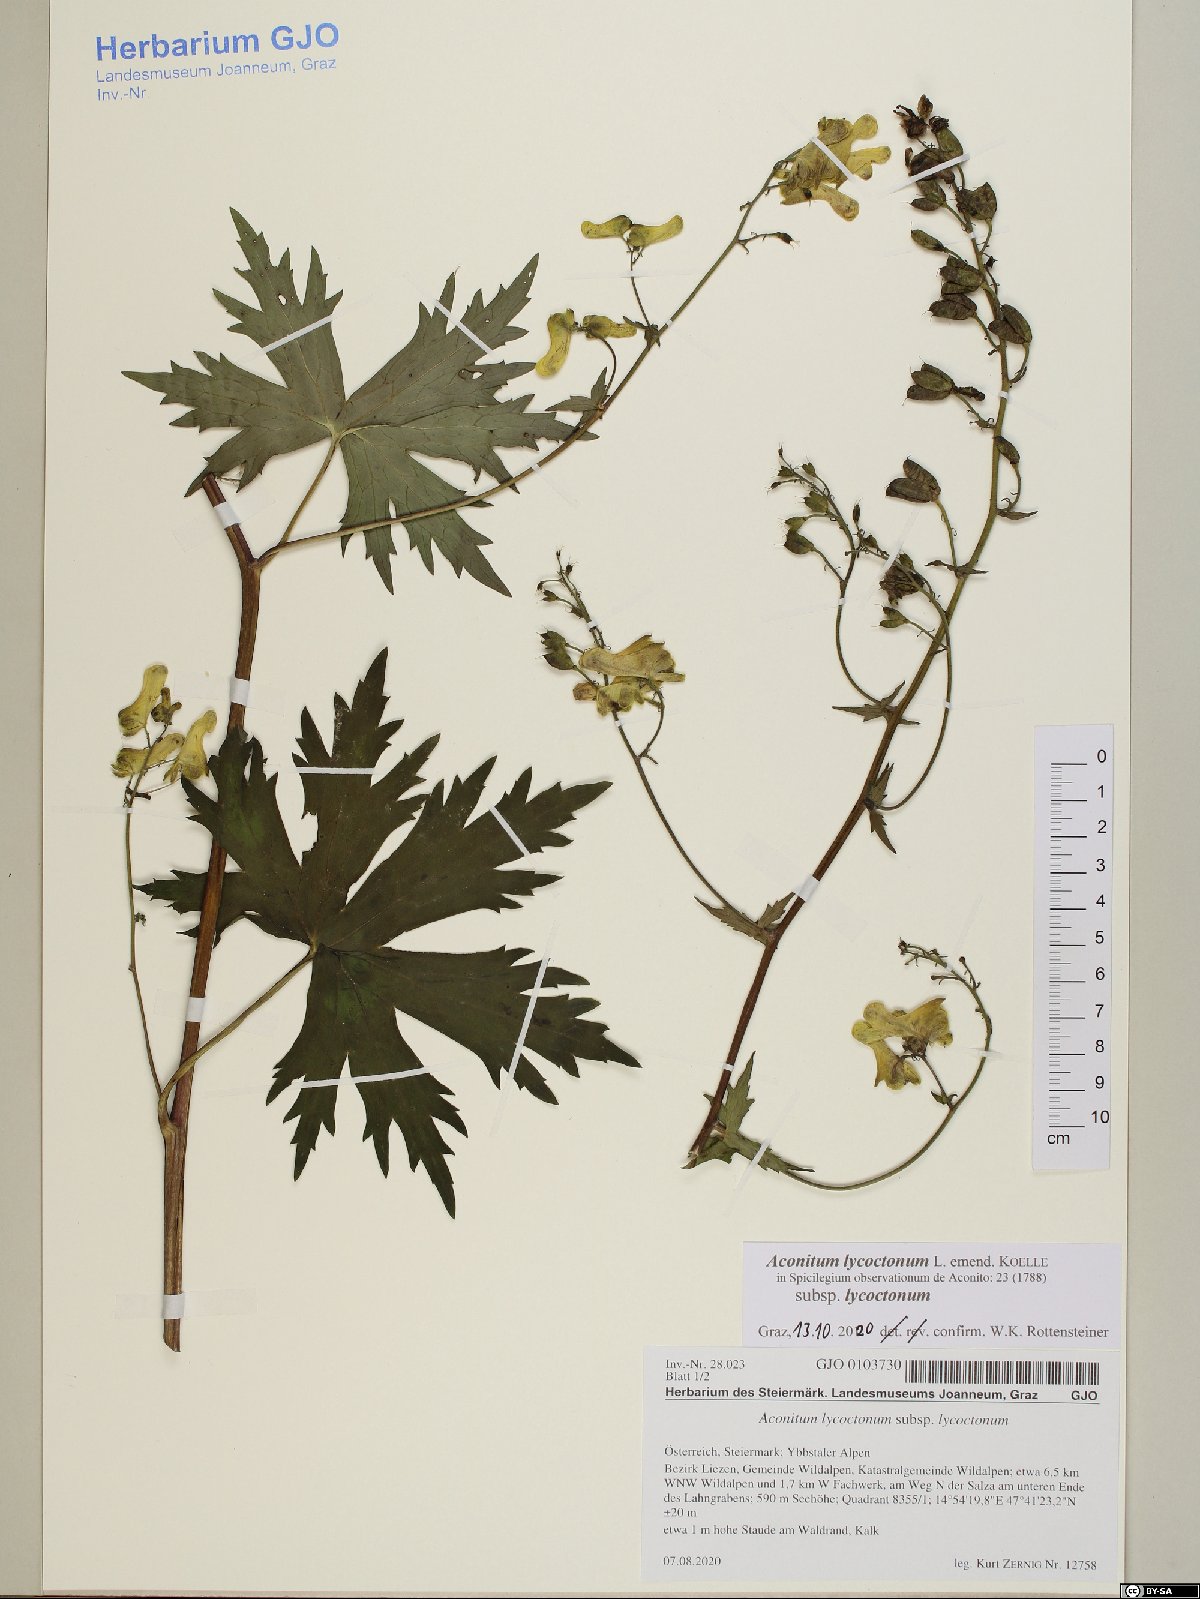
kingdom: Plantae
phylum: Tracheophyta
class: Magnoliopsida
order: Ranunculales
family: Ranunculaceae
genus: Aconitum
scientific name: Aconitum lycoctonum
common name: Wolf's-bane
